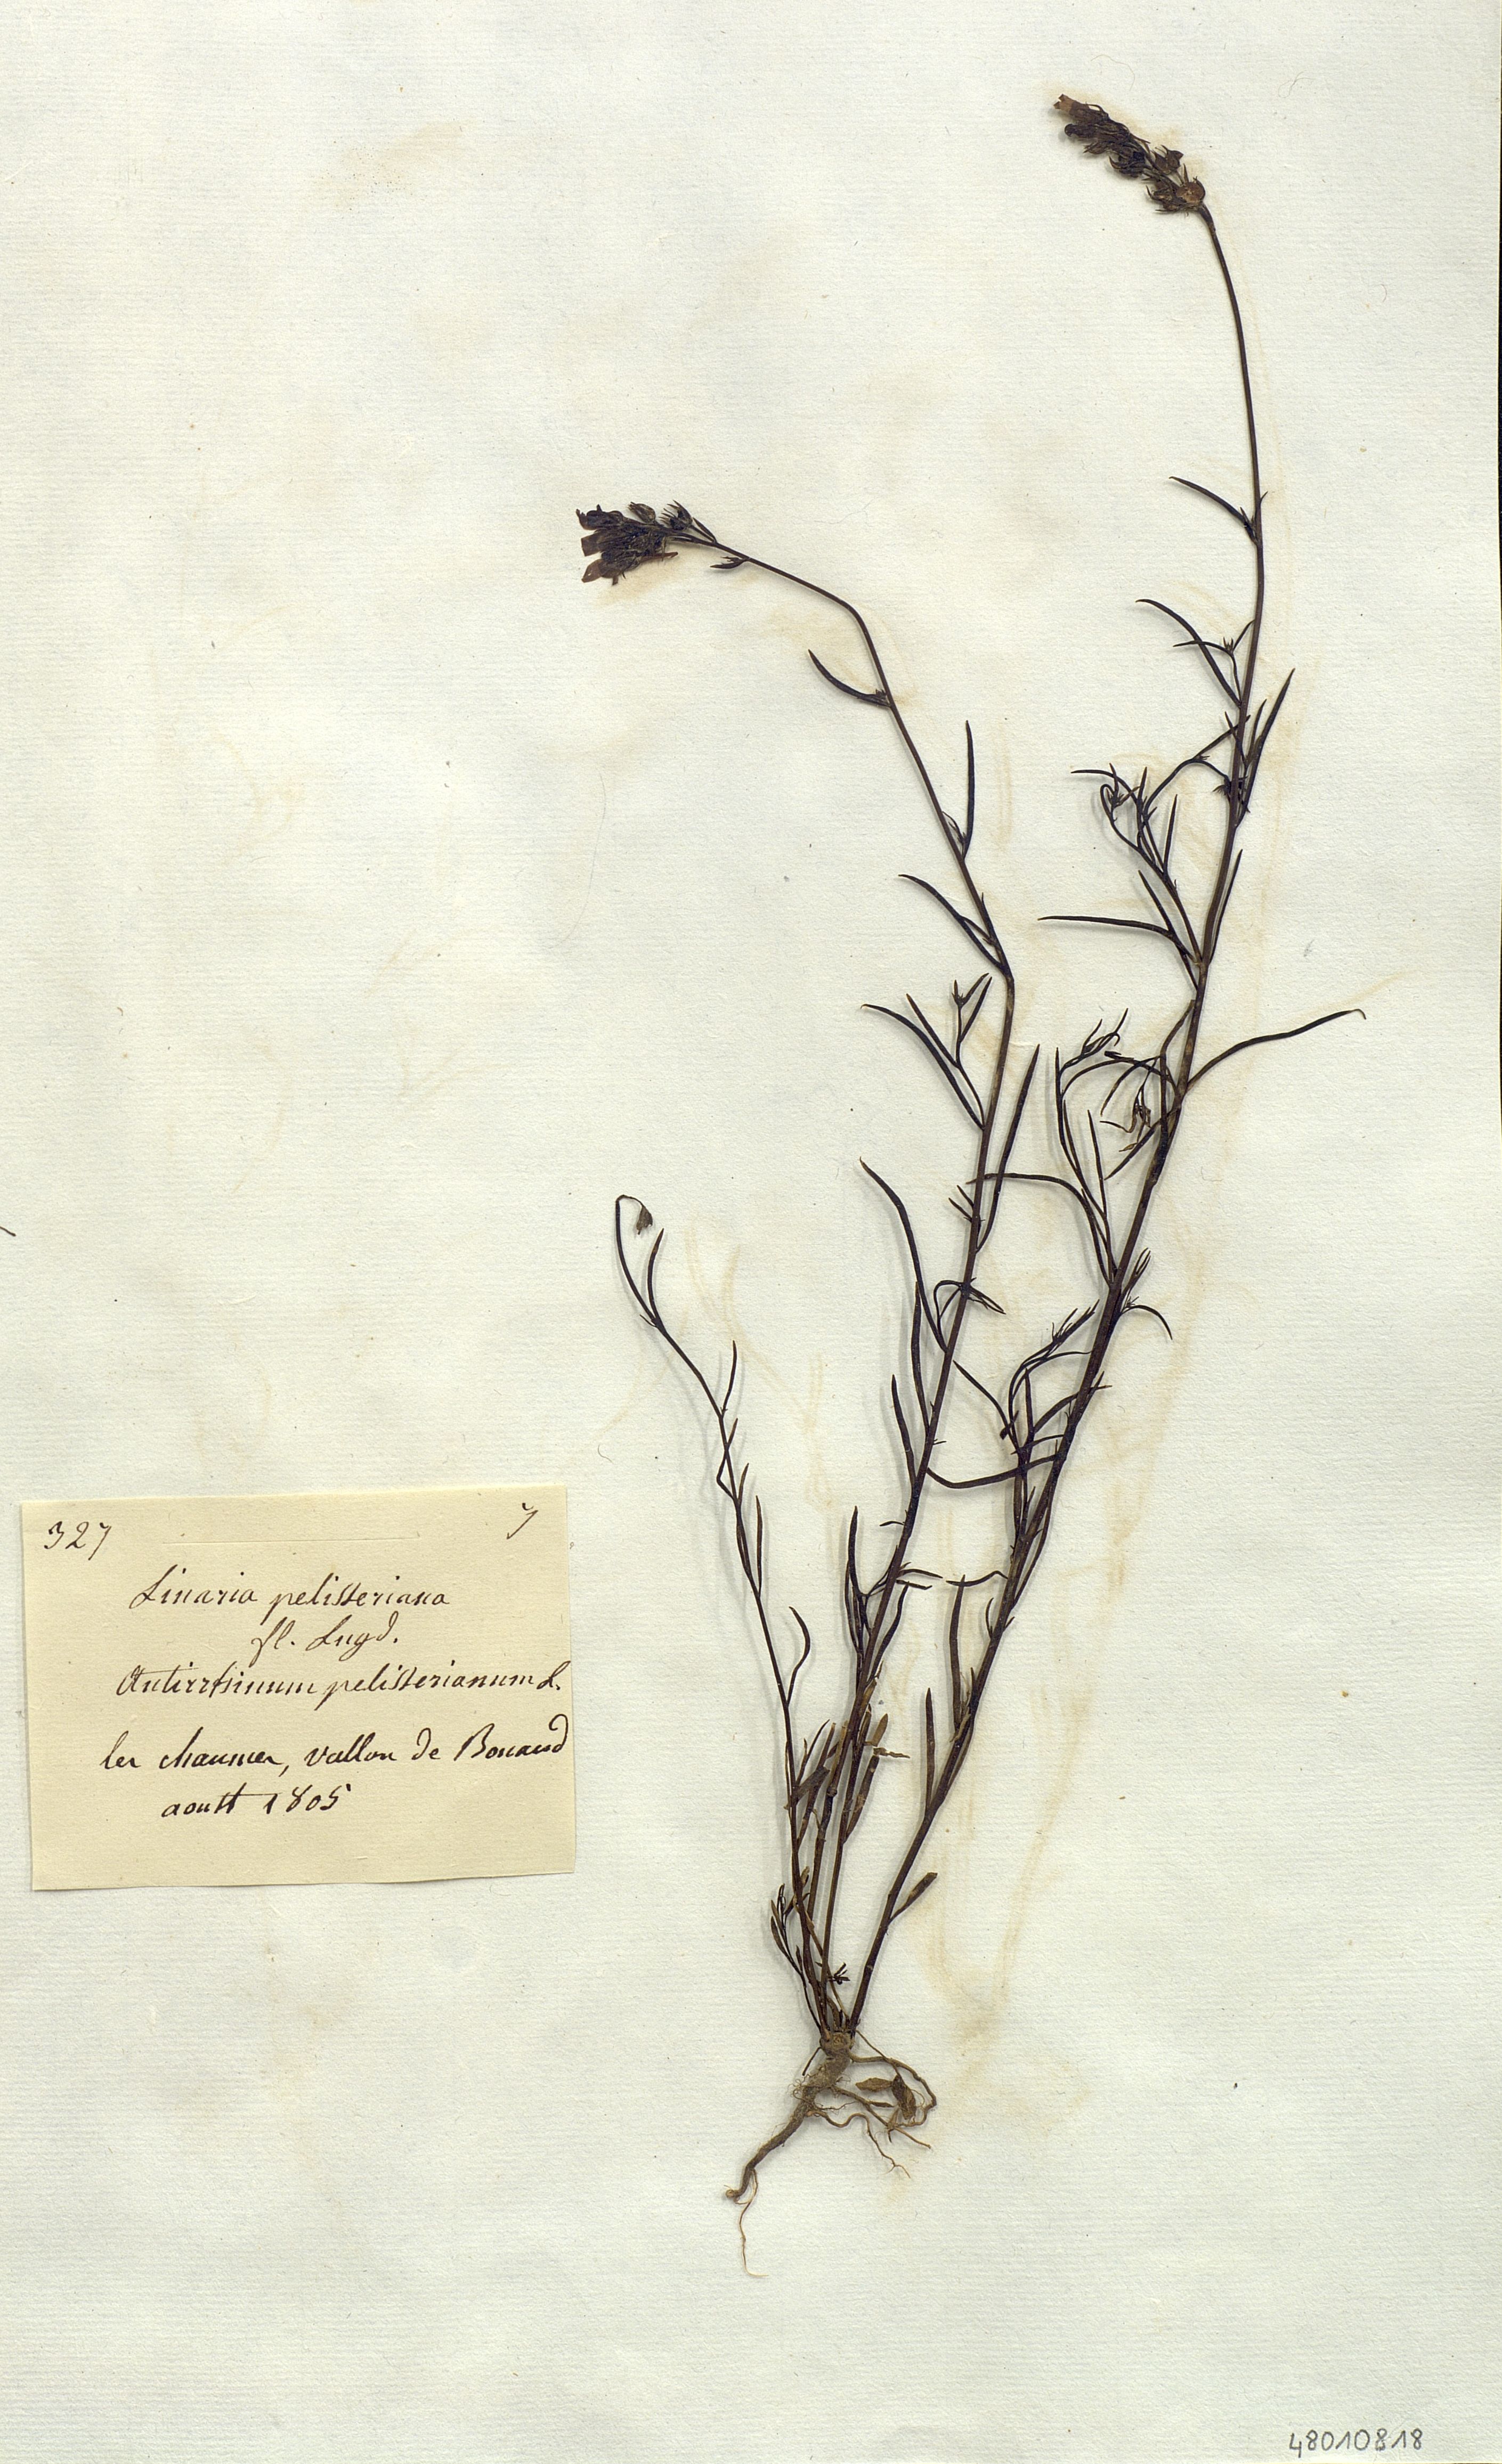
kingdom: Plantae
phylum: Tracheophyta
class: Magnoliopsida
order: Lamiales
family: Plantaginaceae
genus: Linaria
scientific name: Linaria pelisseriana
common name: Jersey toadflax
